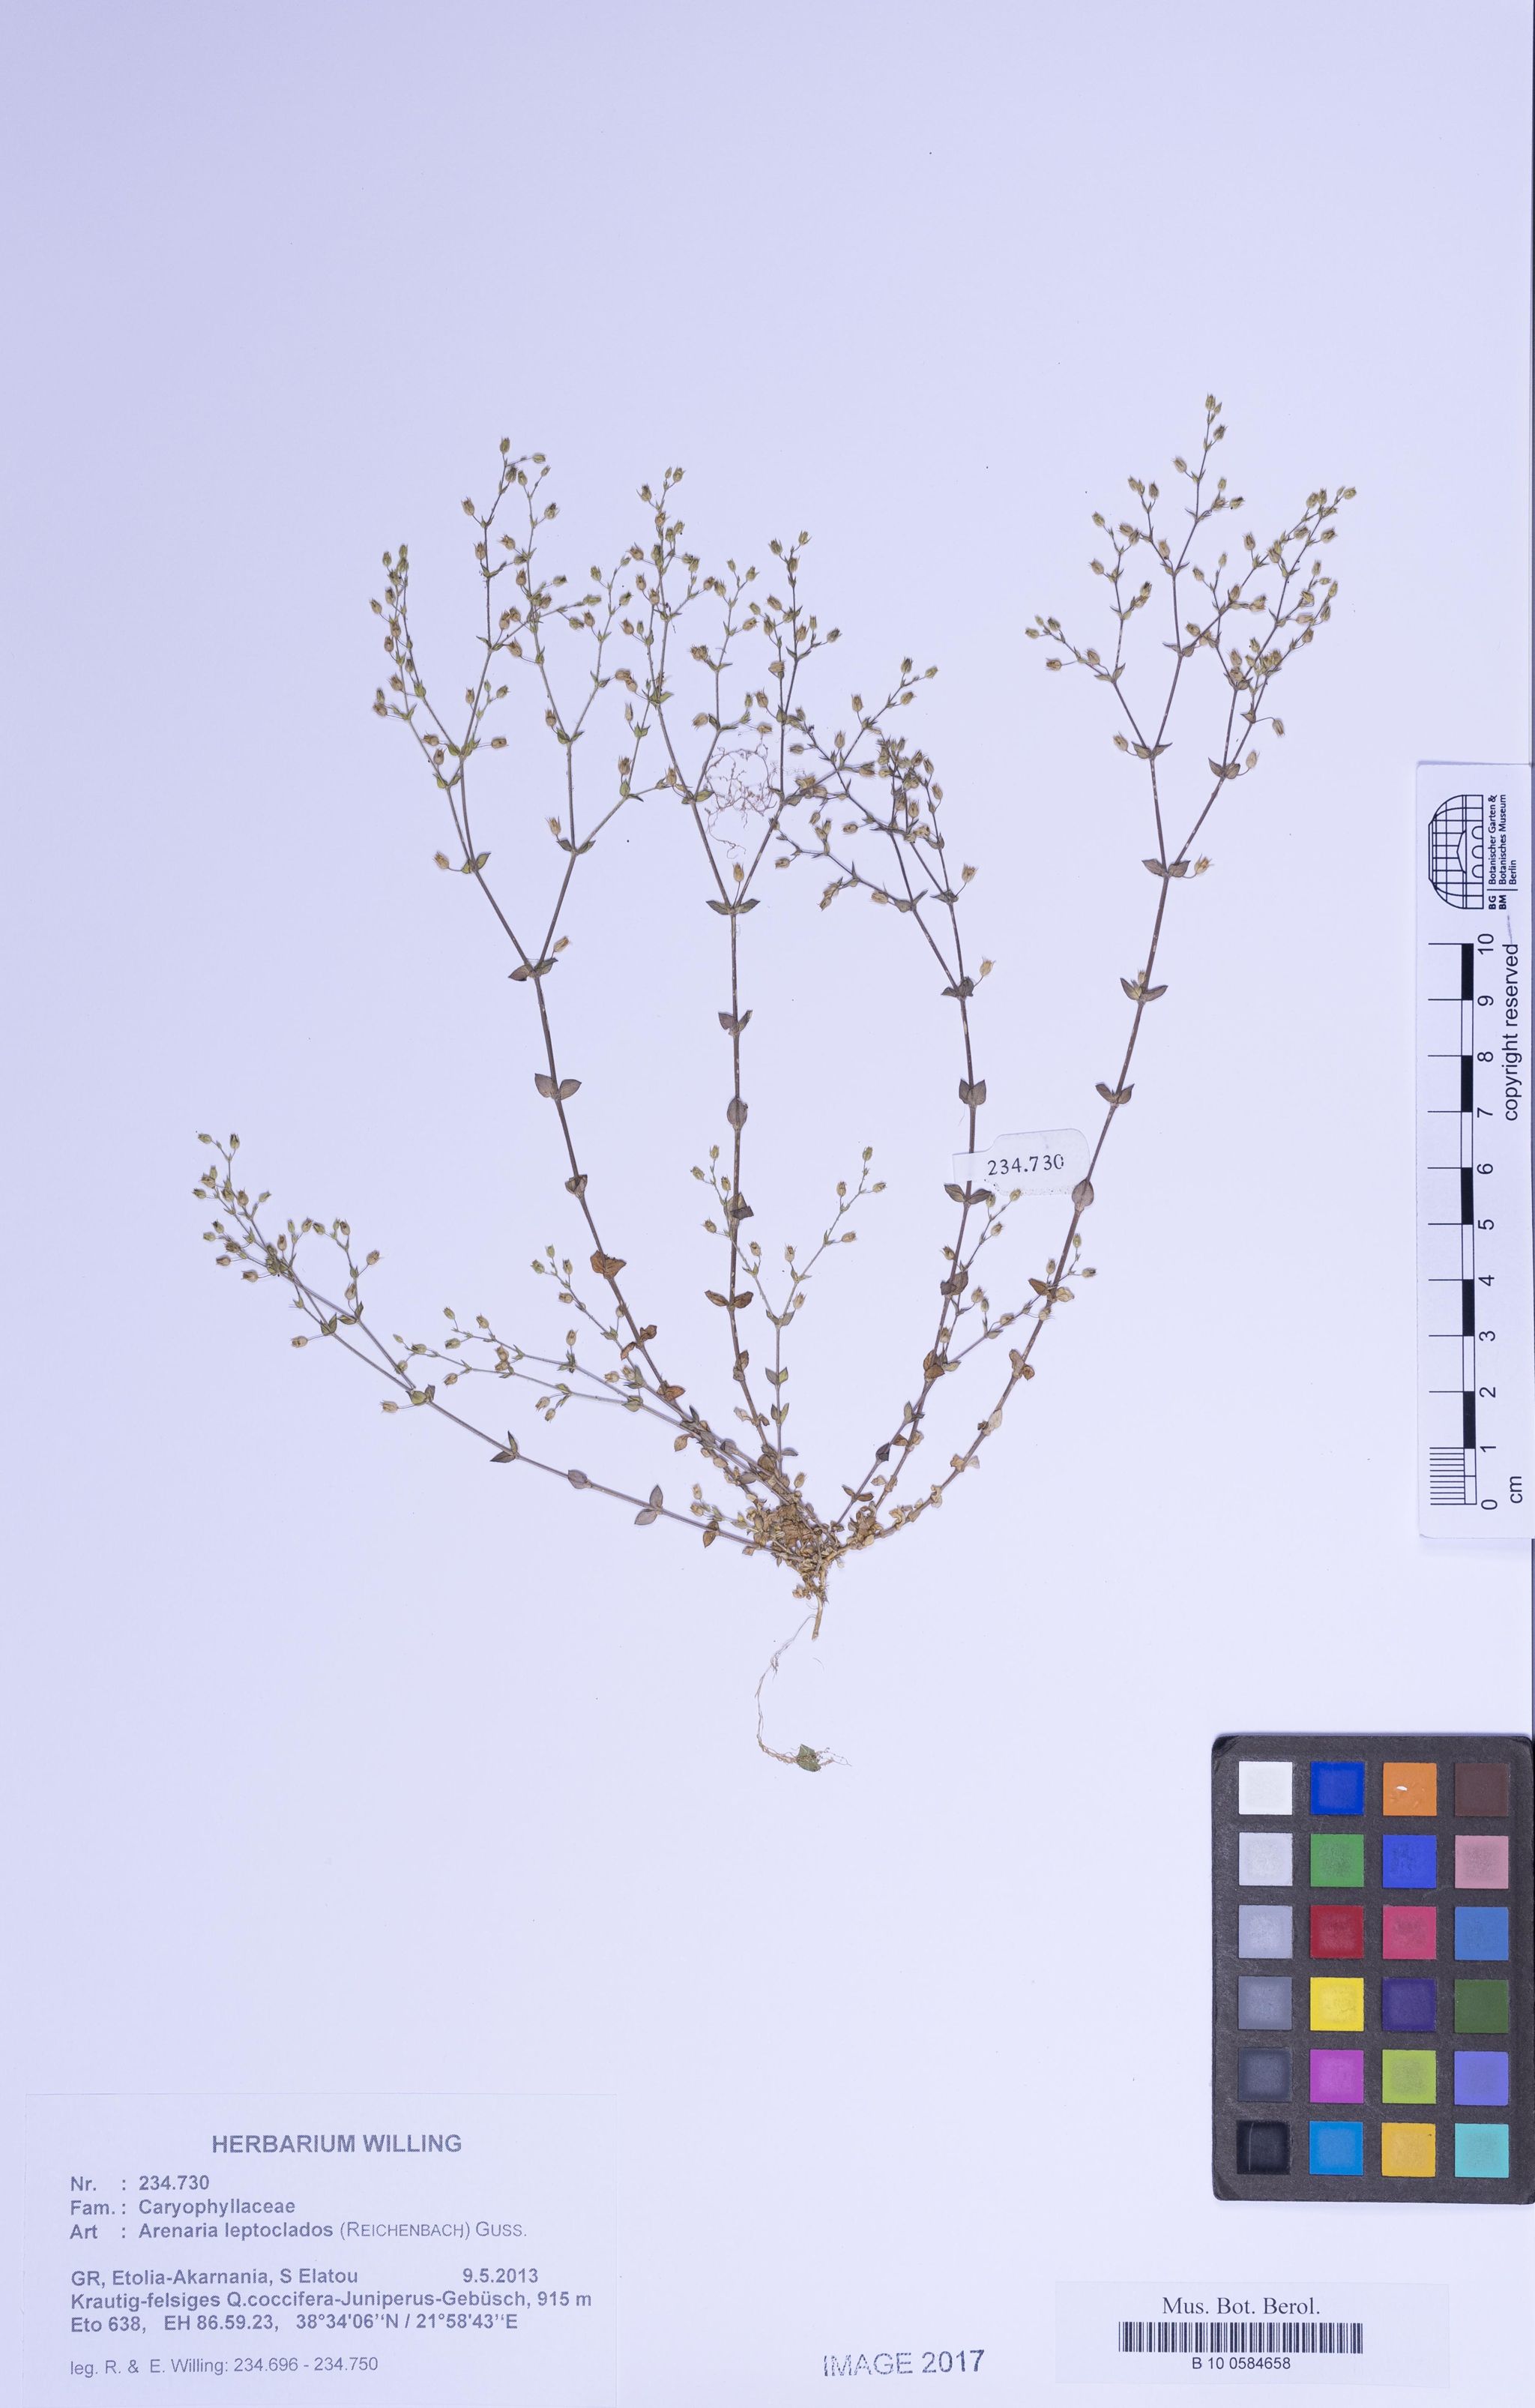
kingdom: Plantae
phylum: Tracheophyta
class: Magnoliopsida
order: Caryophyllales
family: Caryophyllaceae
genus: Arenaria
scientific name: Arenaria leptoclados
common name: Thyme-leaved sandwort
